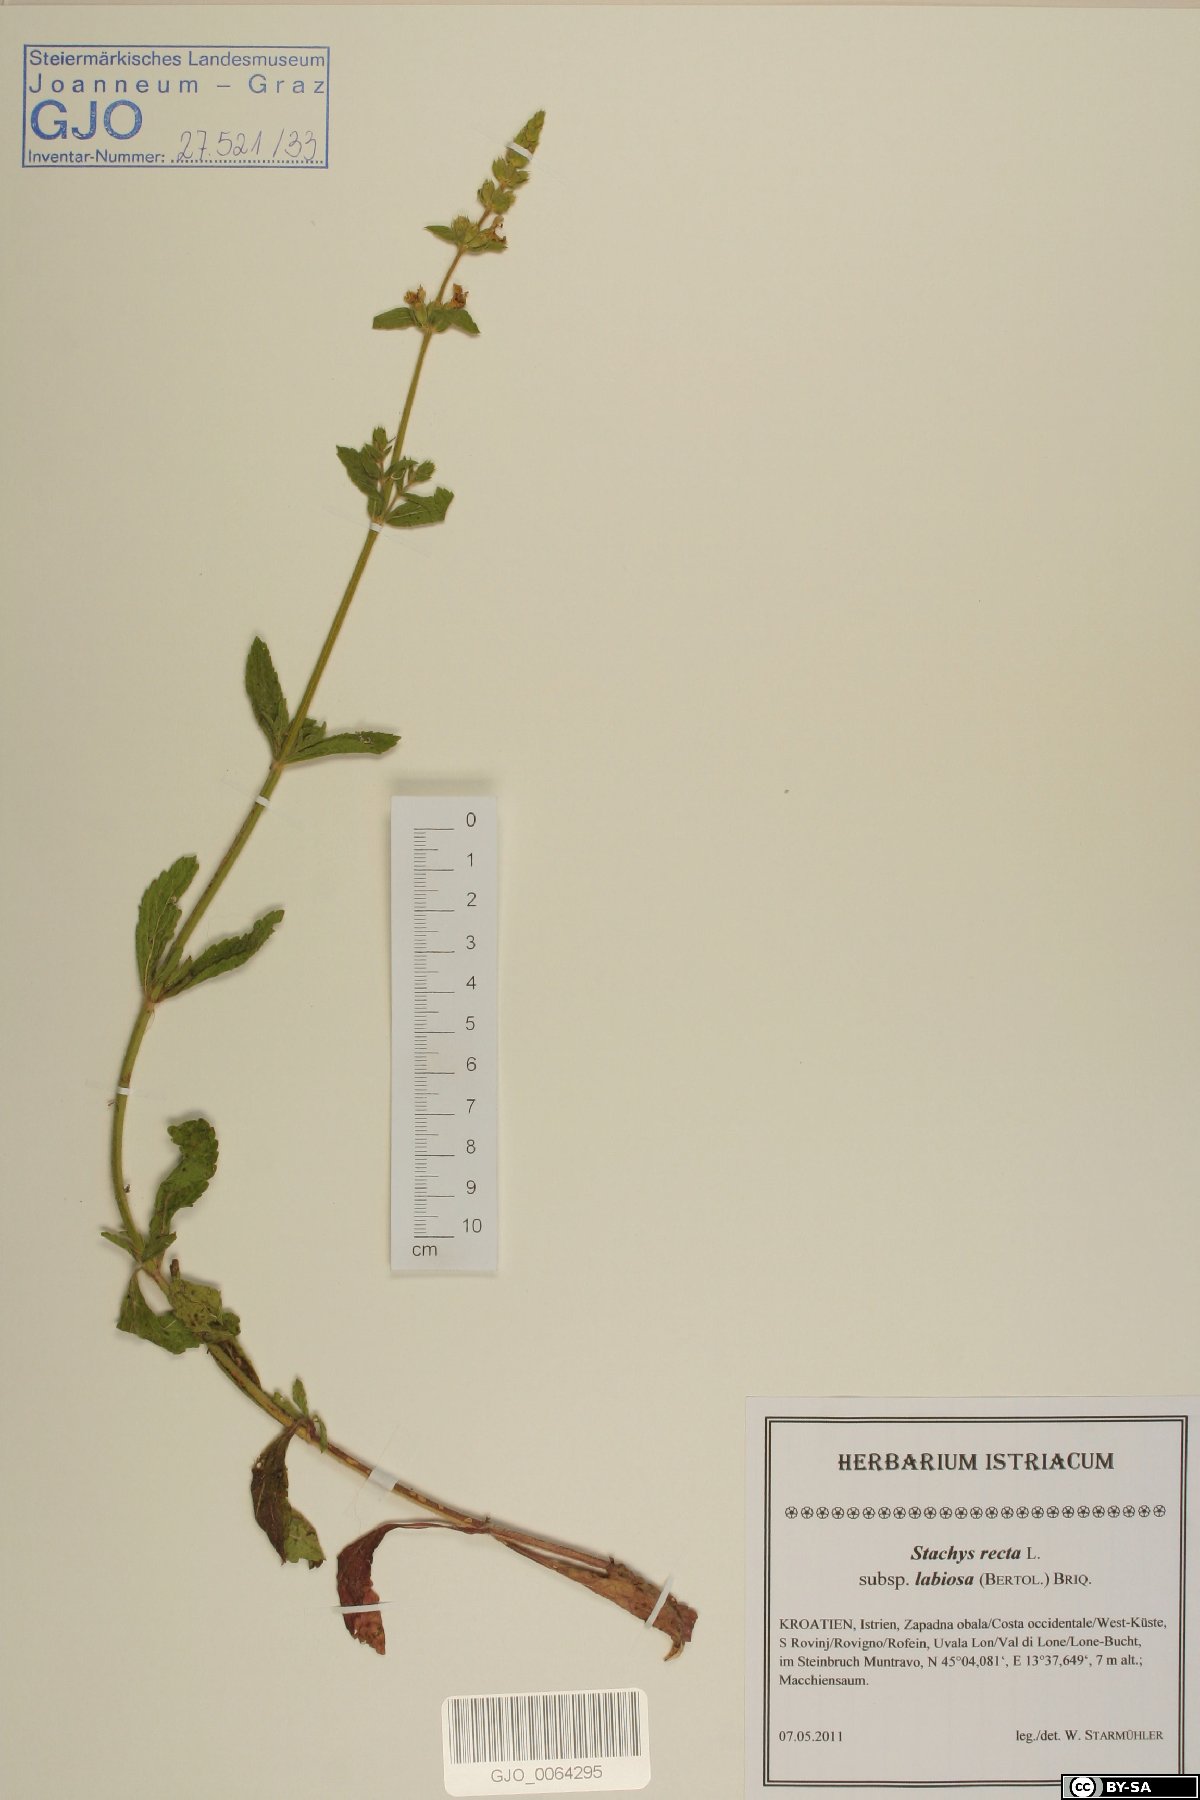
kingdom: Plantae
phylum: Tracheophyta
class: Magnoliopsida
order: Lamiales
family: Lamiaceae
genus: Stachys
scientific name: Stachys recta
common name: Perennial yellow-woundwort
